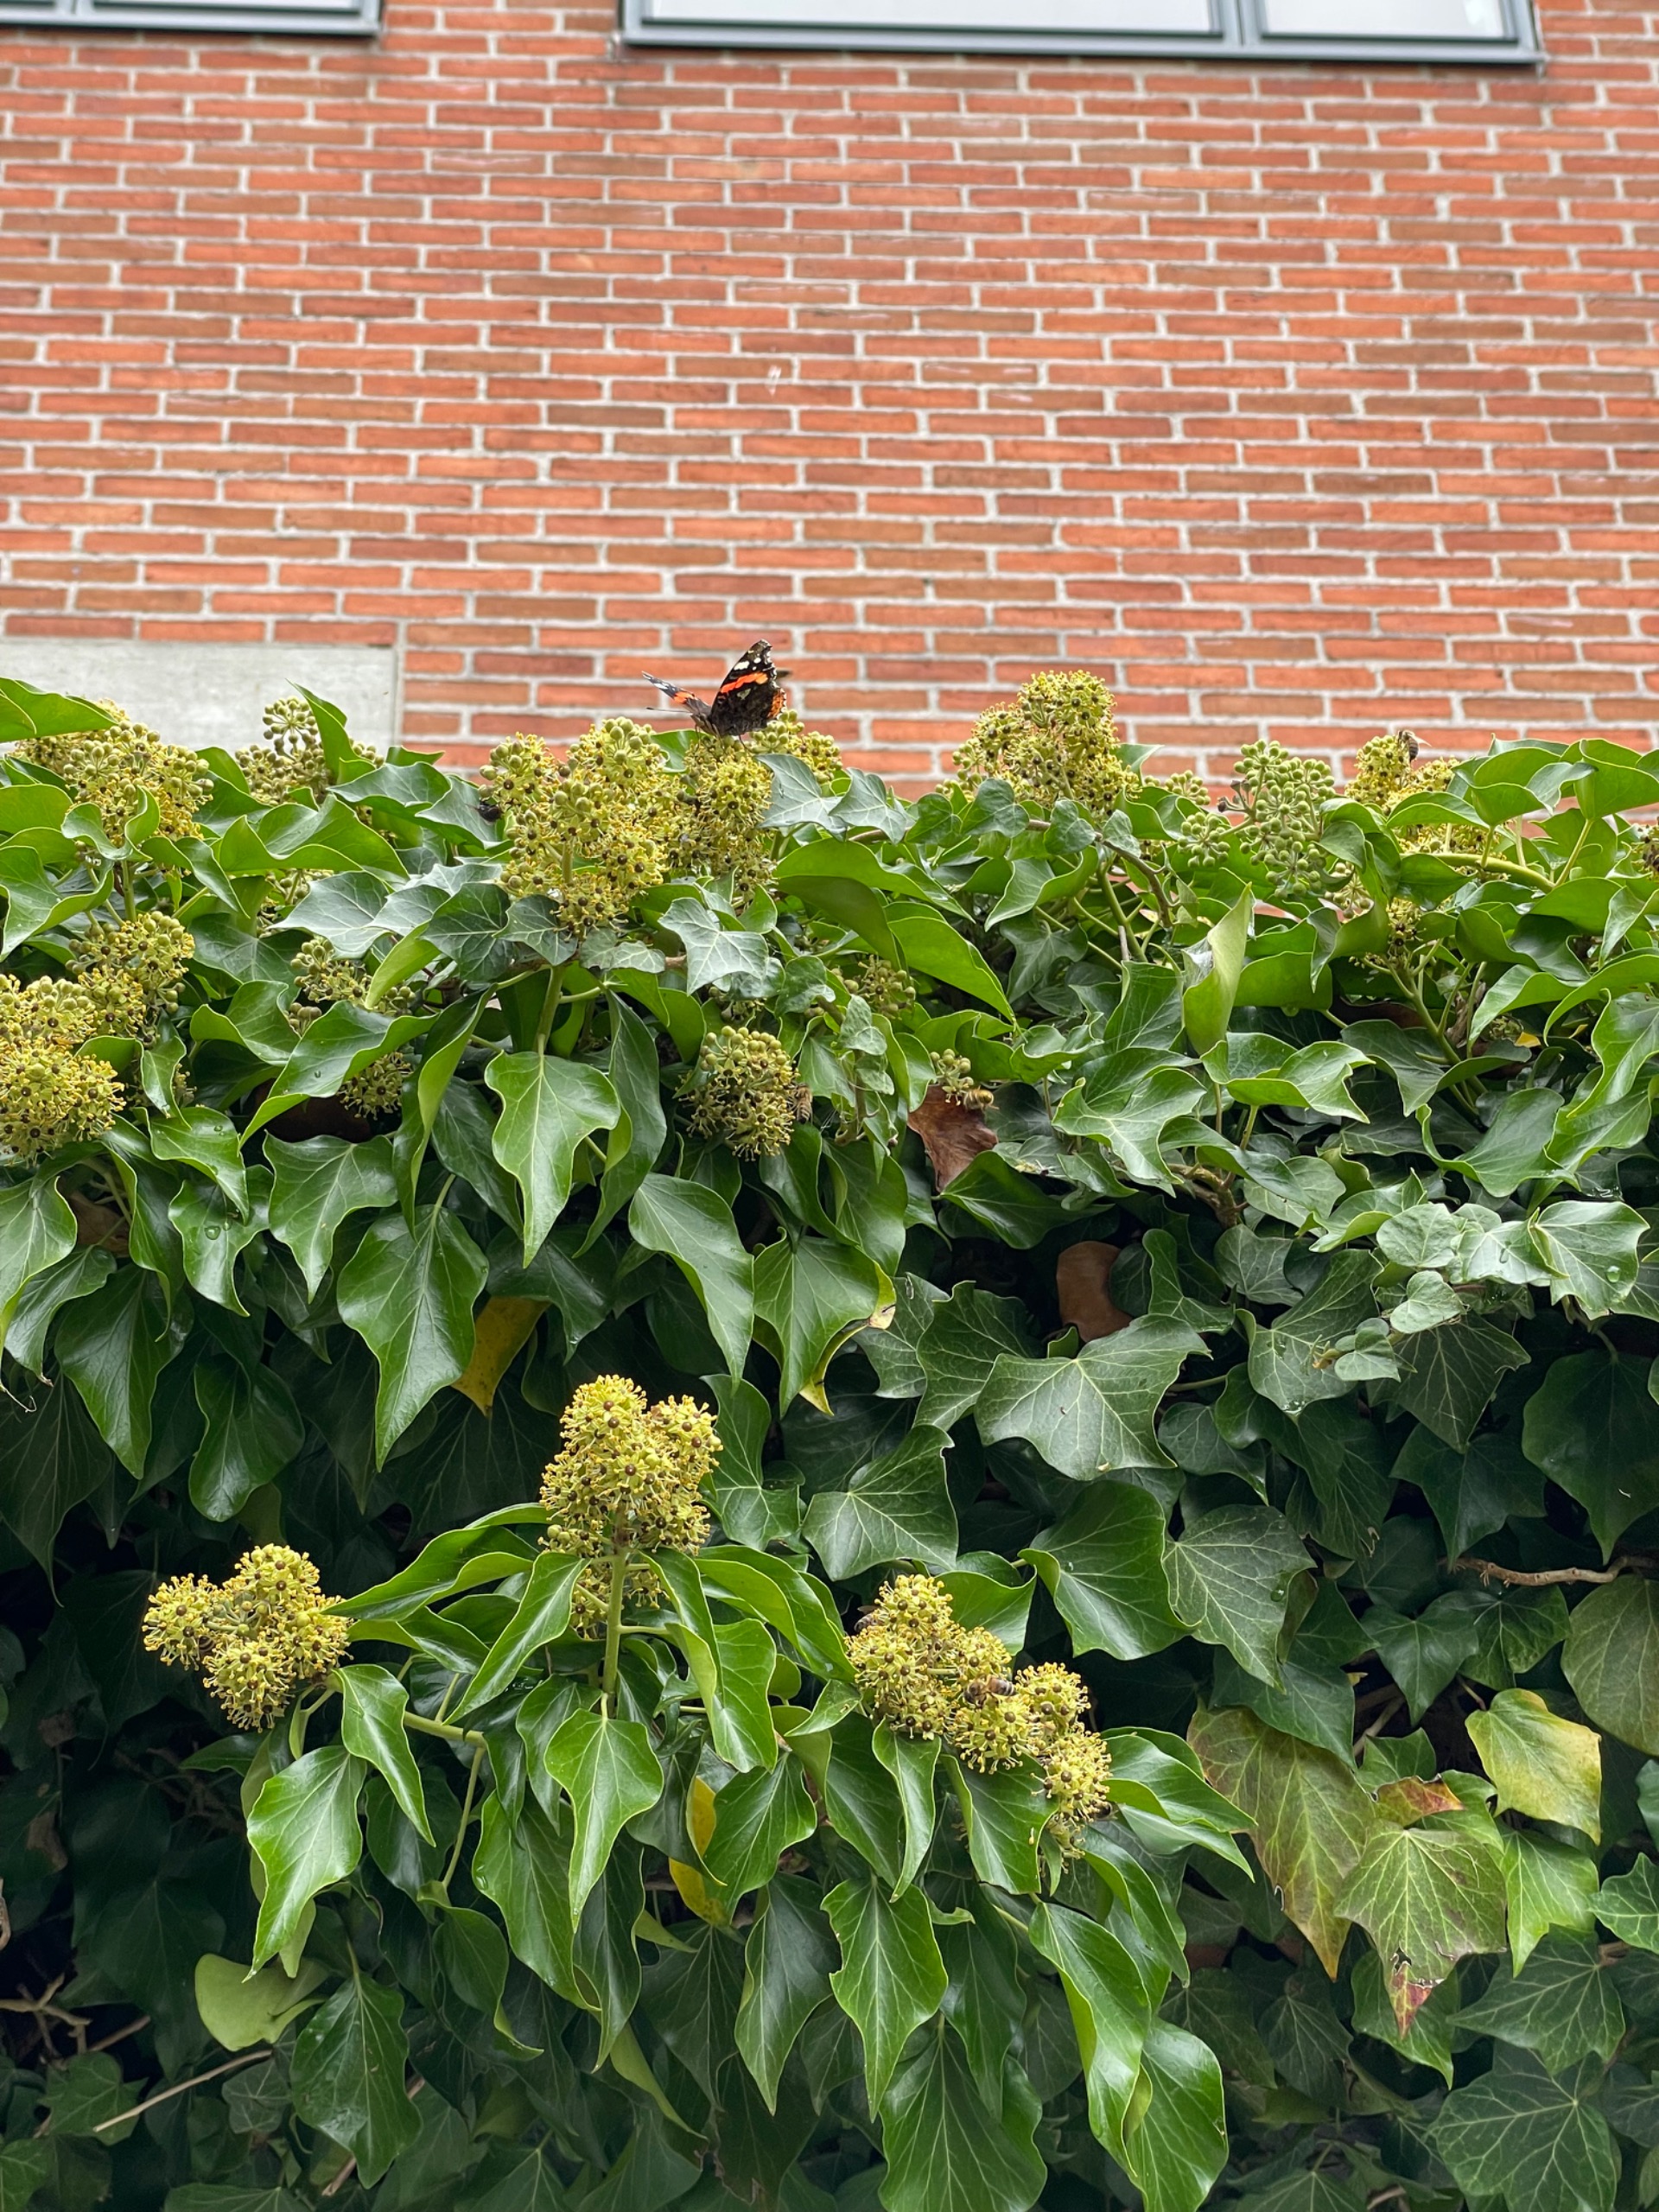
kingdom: Animalia
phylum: Arthropoda
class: Insecta
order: Lepidoptera
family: Nymphalidae
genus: Vanessa
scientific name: Vanessa atalanta
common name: Admiral
